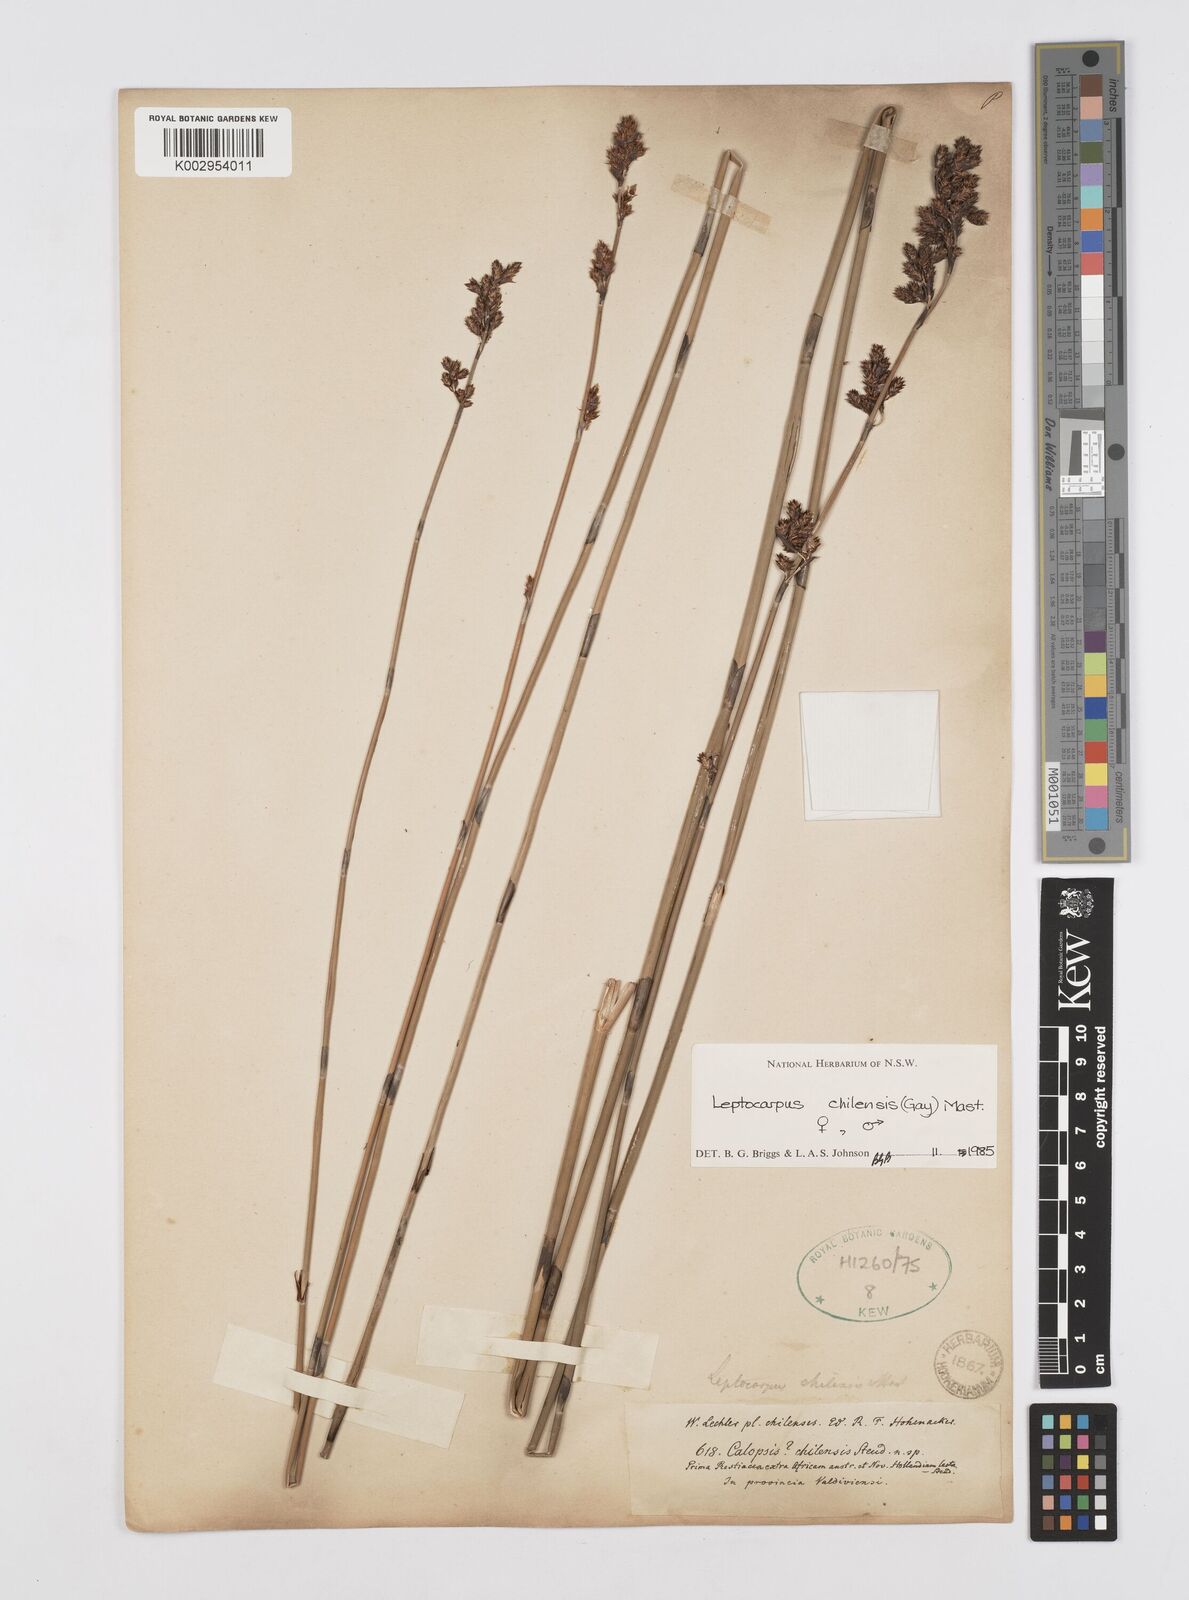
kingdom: Plantae
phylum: Tracheophyta
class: Liliopsida
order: Poales
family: Restionaceae
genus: Apodasmia
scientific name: Apodasmia chilensis
